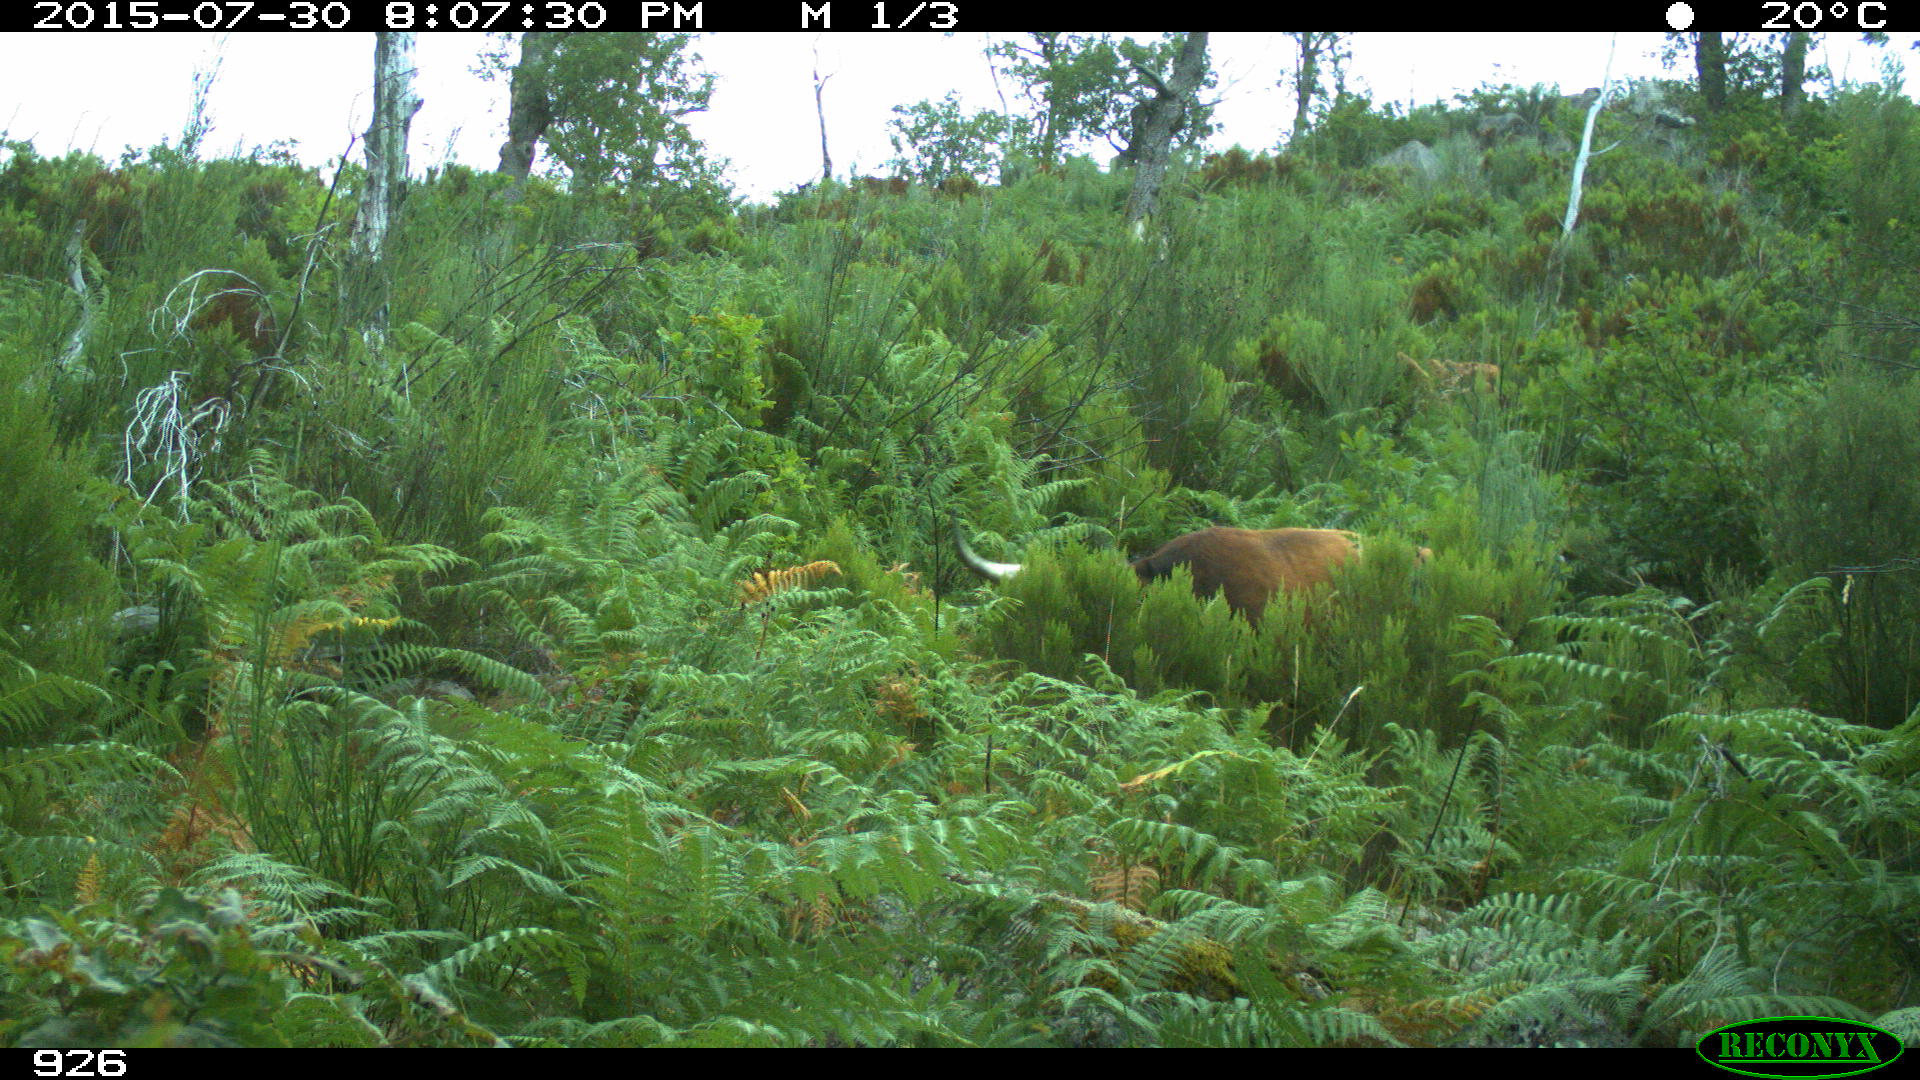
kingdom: Animalia
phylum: Chordata
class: Mammalia
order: Artiodactyla
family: Bovidae
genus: Bos
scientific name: Bos taurus
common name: Domesticated cattle
